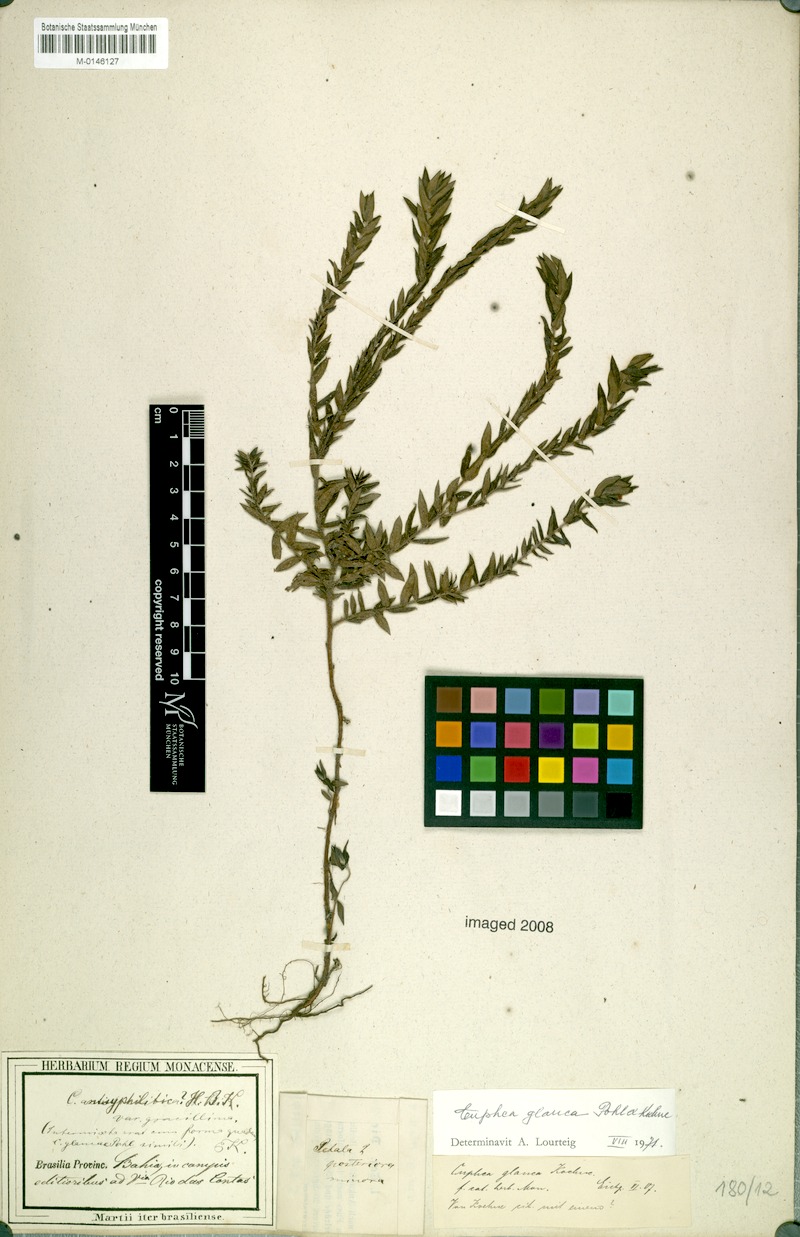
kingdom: Plantae
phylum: Tracheophyta
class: Magnoliopsida
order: Myrtales
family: Lythraceae
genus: Cuphea
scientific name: Cuphea glauca
